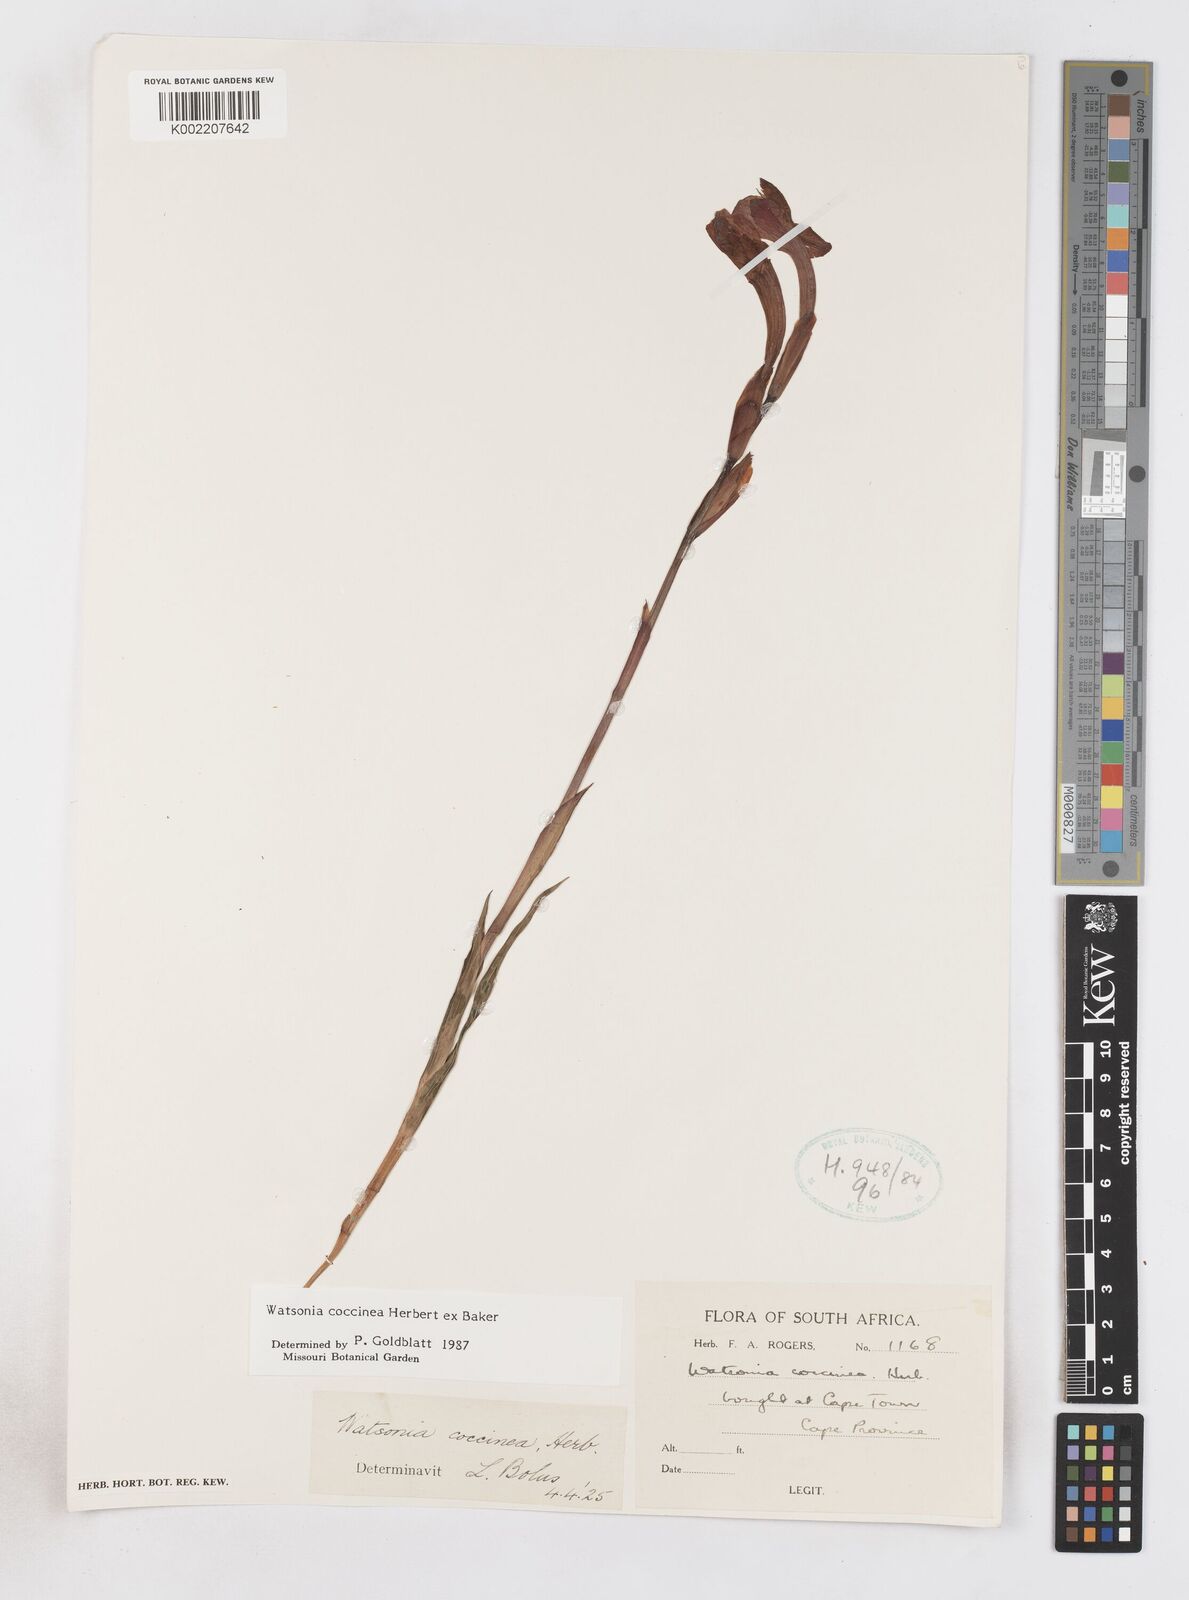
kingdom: Plantae
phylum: Tracheophyta
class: Liliopsida
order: Asparagales
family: Iridaceae
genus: Watsonia
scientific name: Watsonia coccinea
